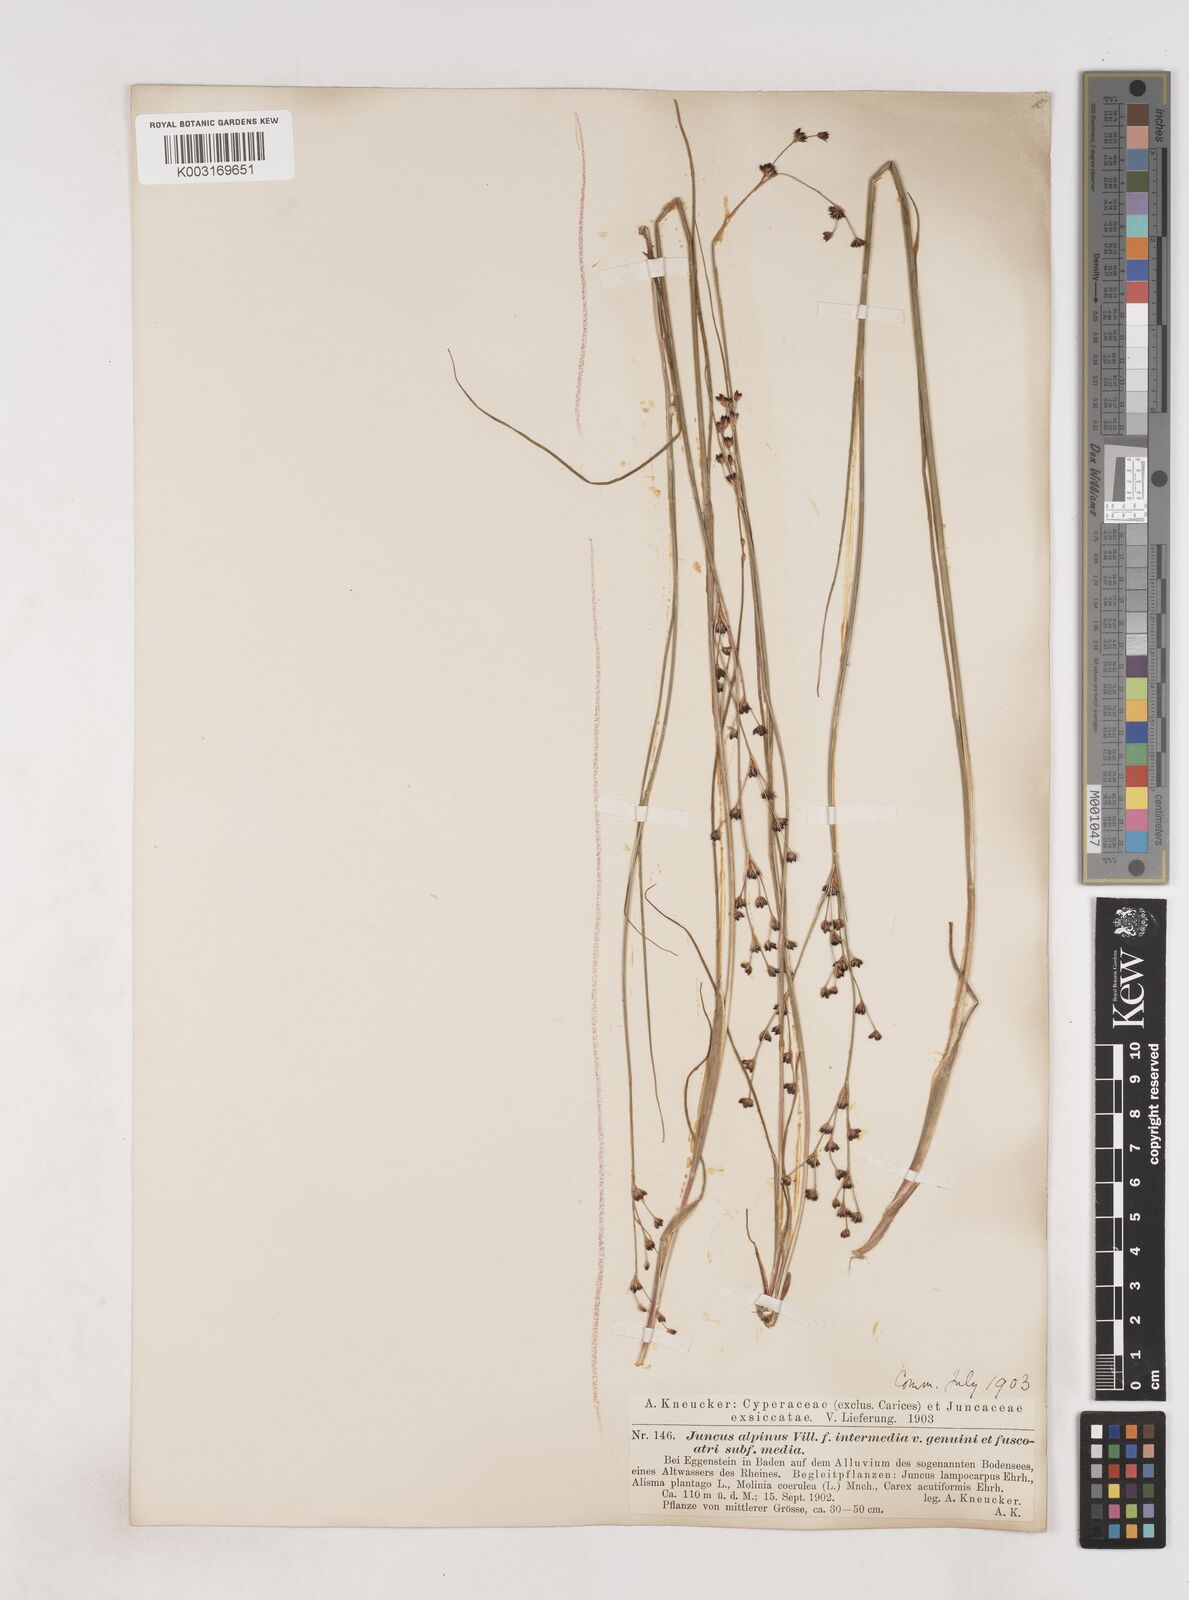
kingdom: Plantae
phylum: Tracheophyta
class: Liliopsida
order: Poales
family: Juncaceae
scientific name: Juncaceae
